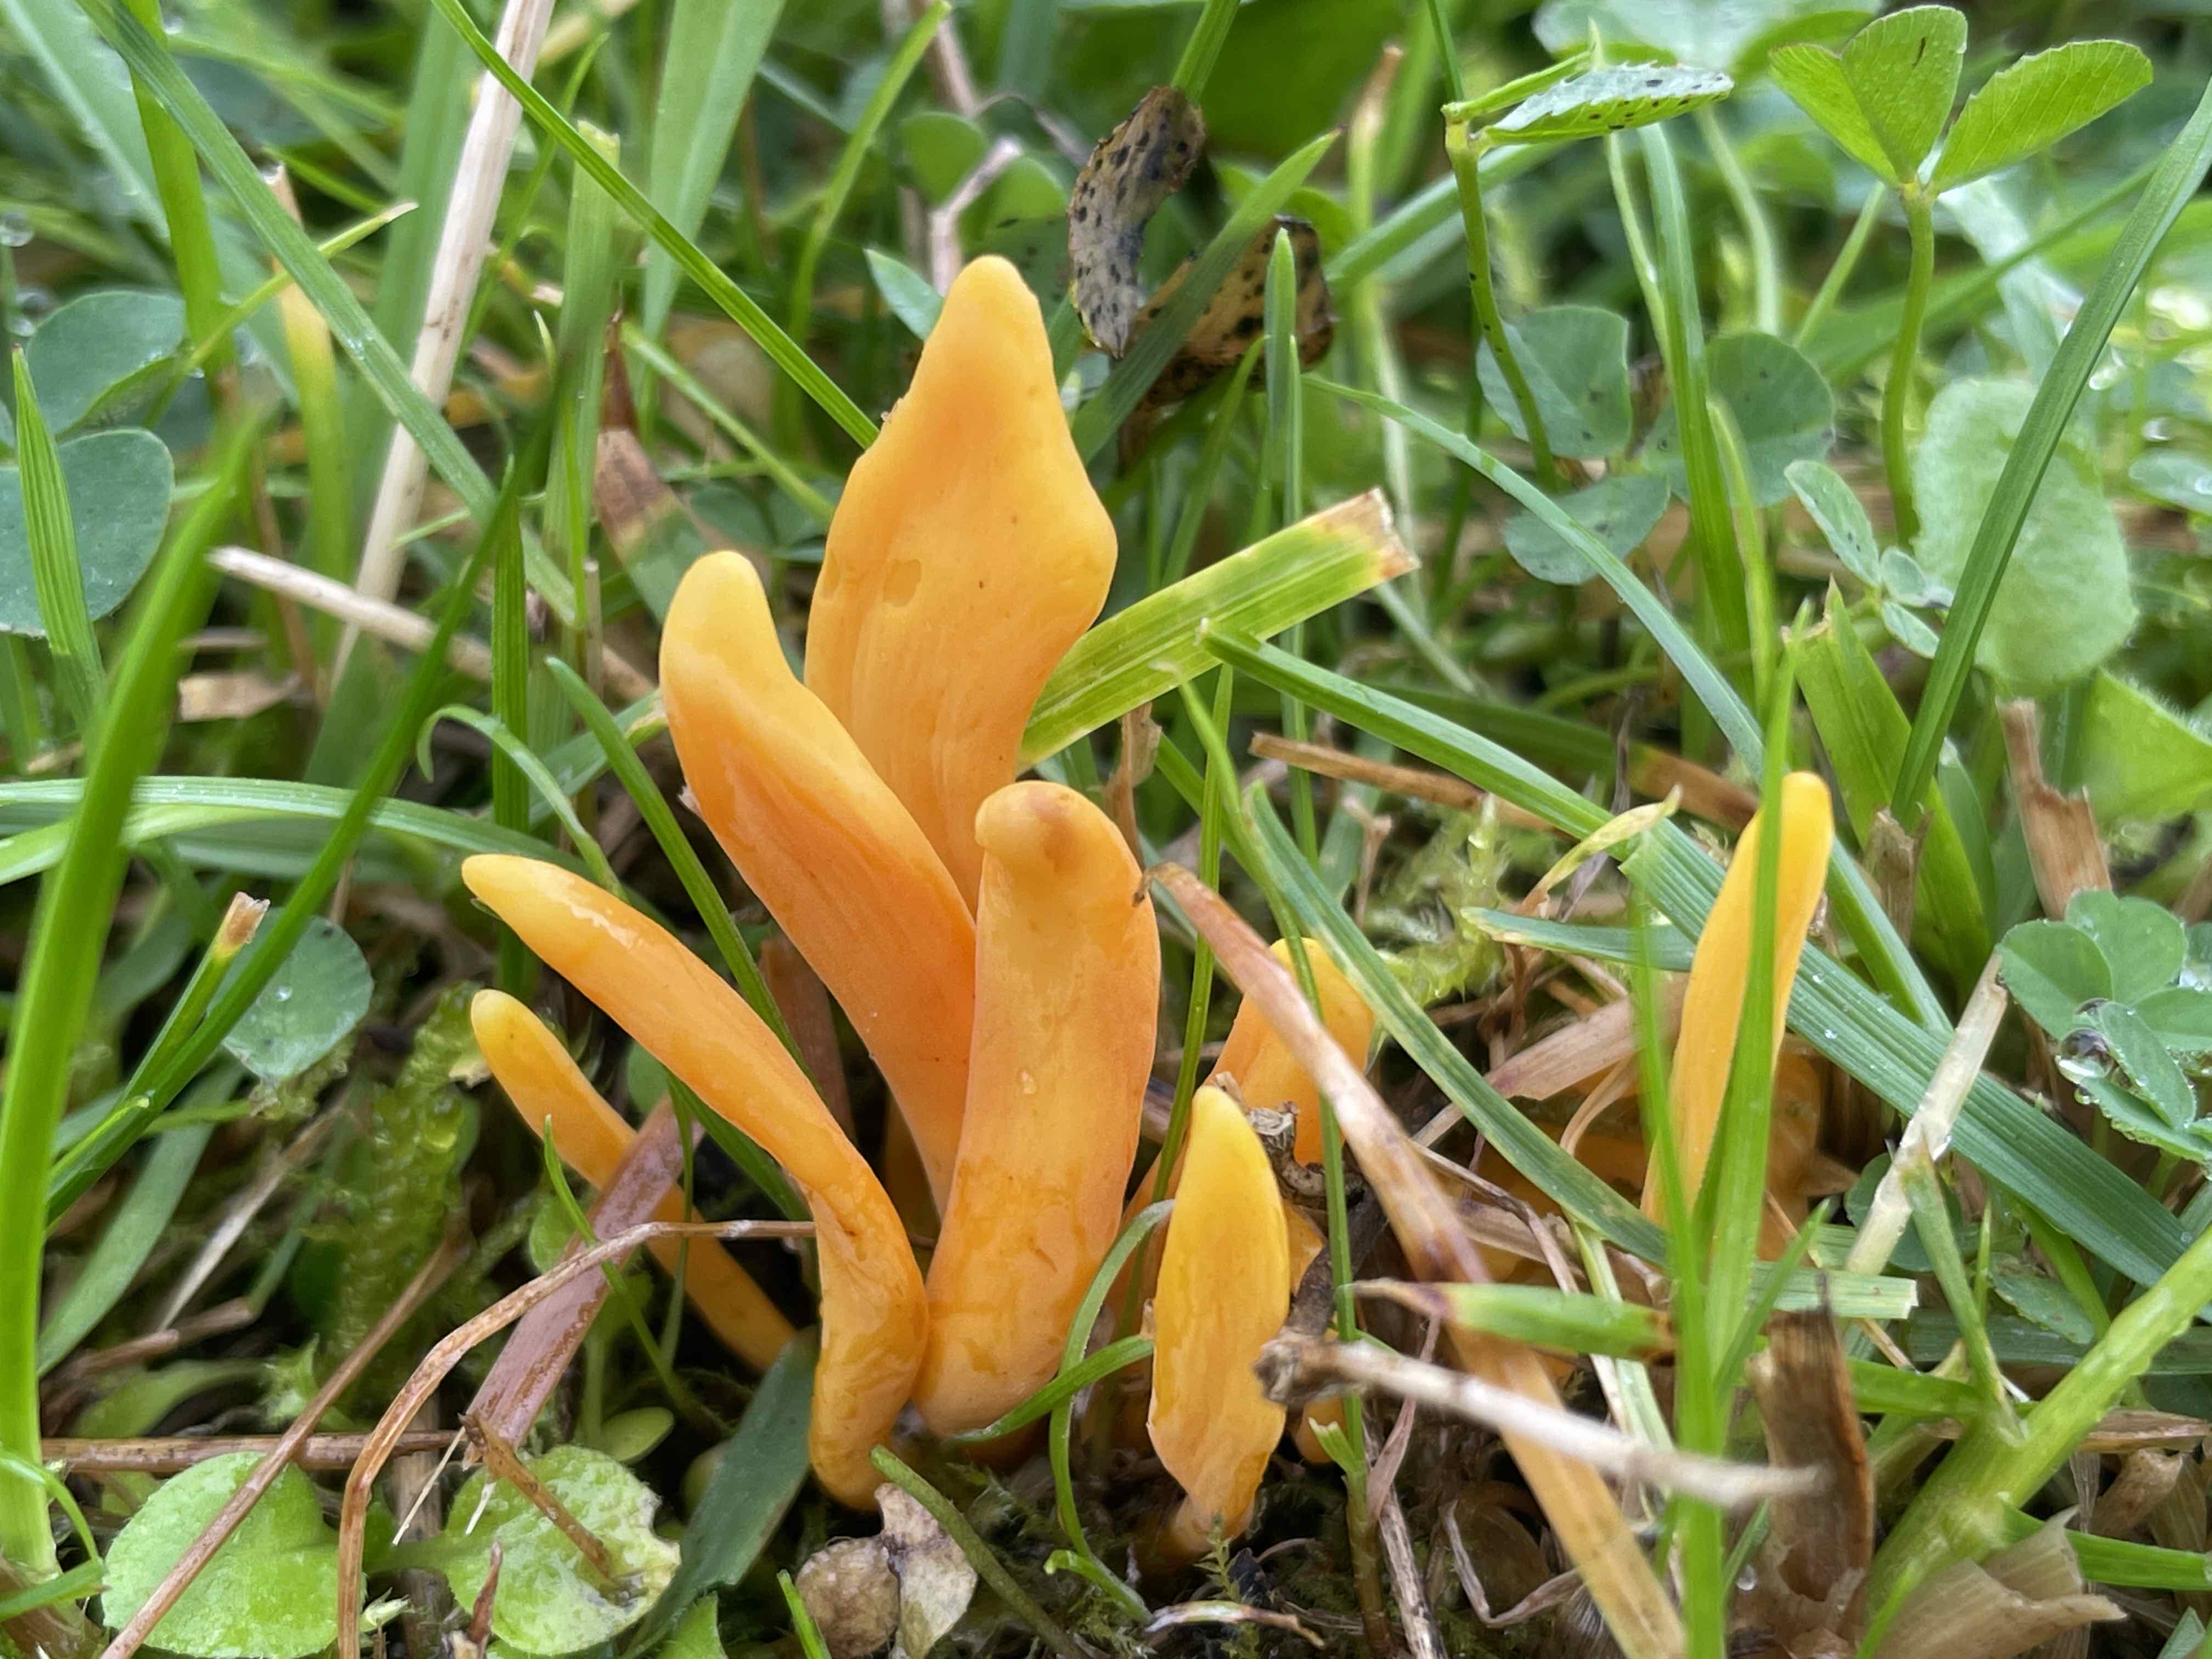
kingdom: Fungi
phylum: Basidiomycota
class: Agaricomycetes
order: Agaricales
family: Clavariaceae
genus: Clavulinopsis
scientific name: Clavulinopsis
